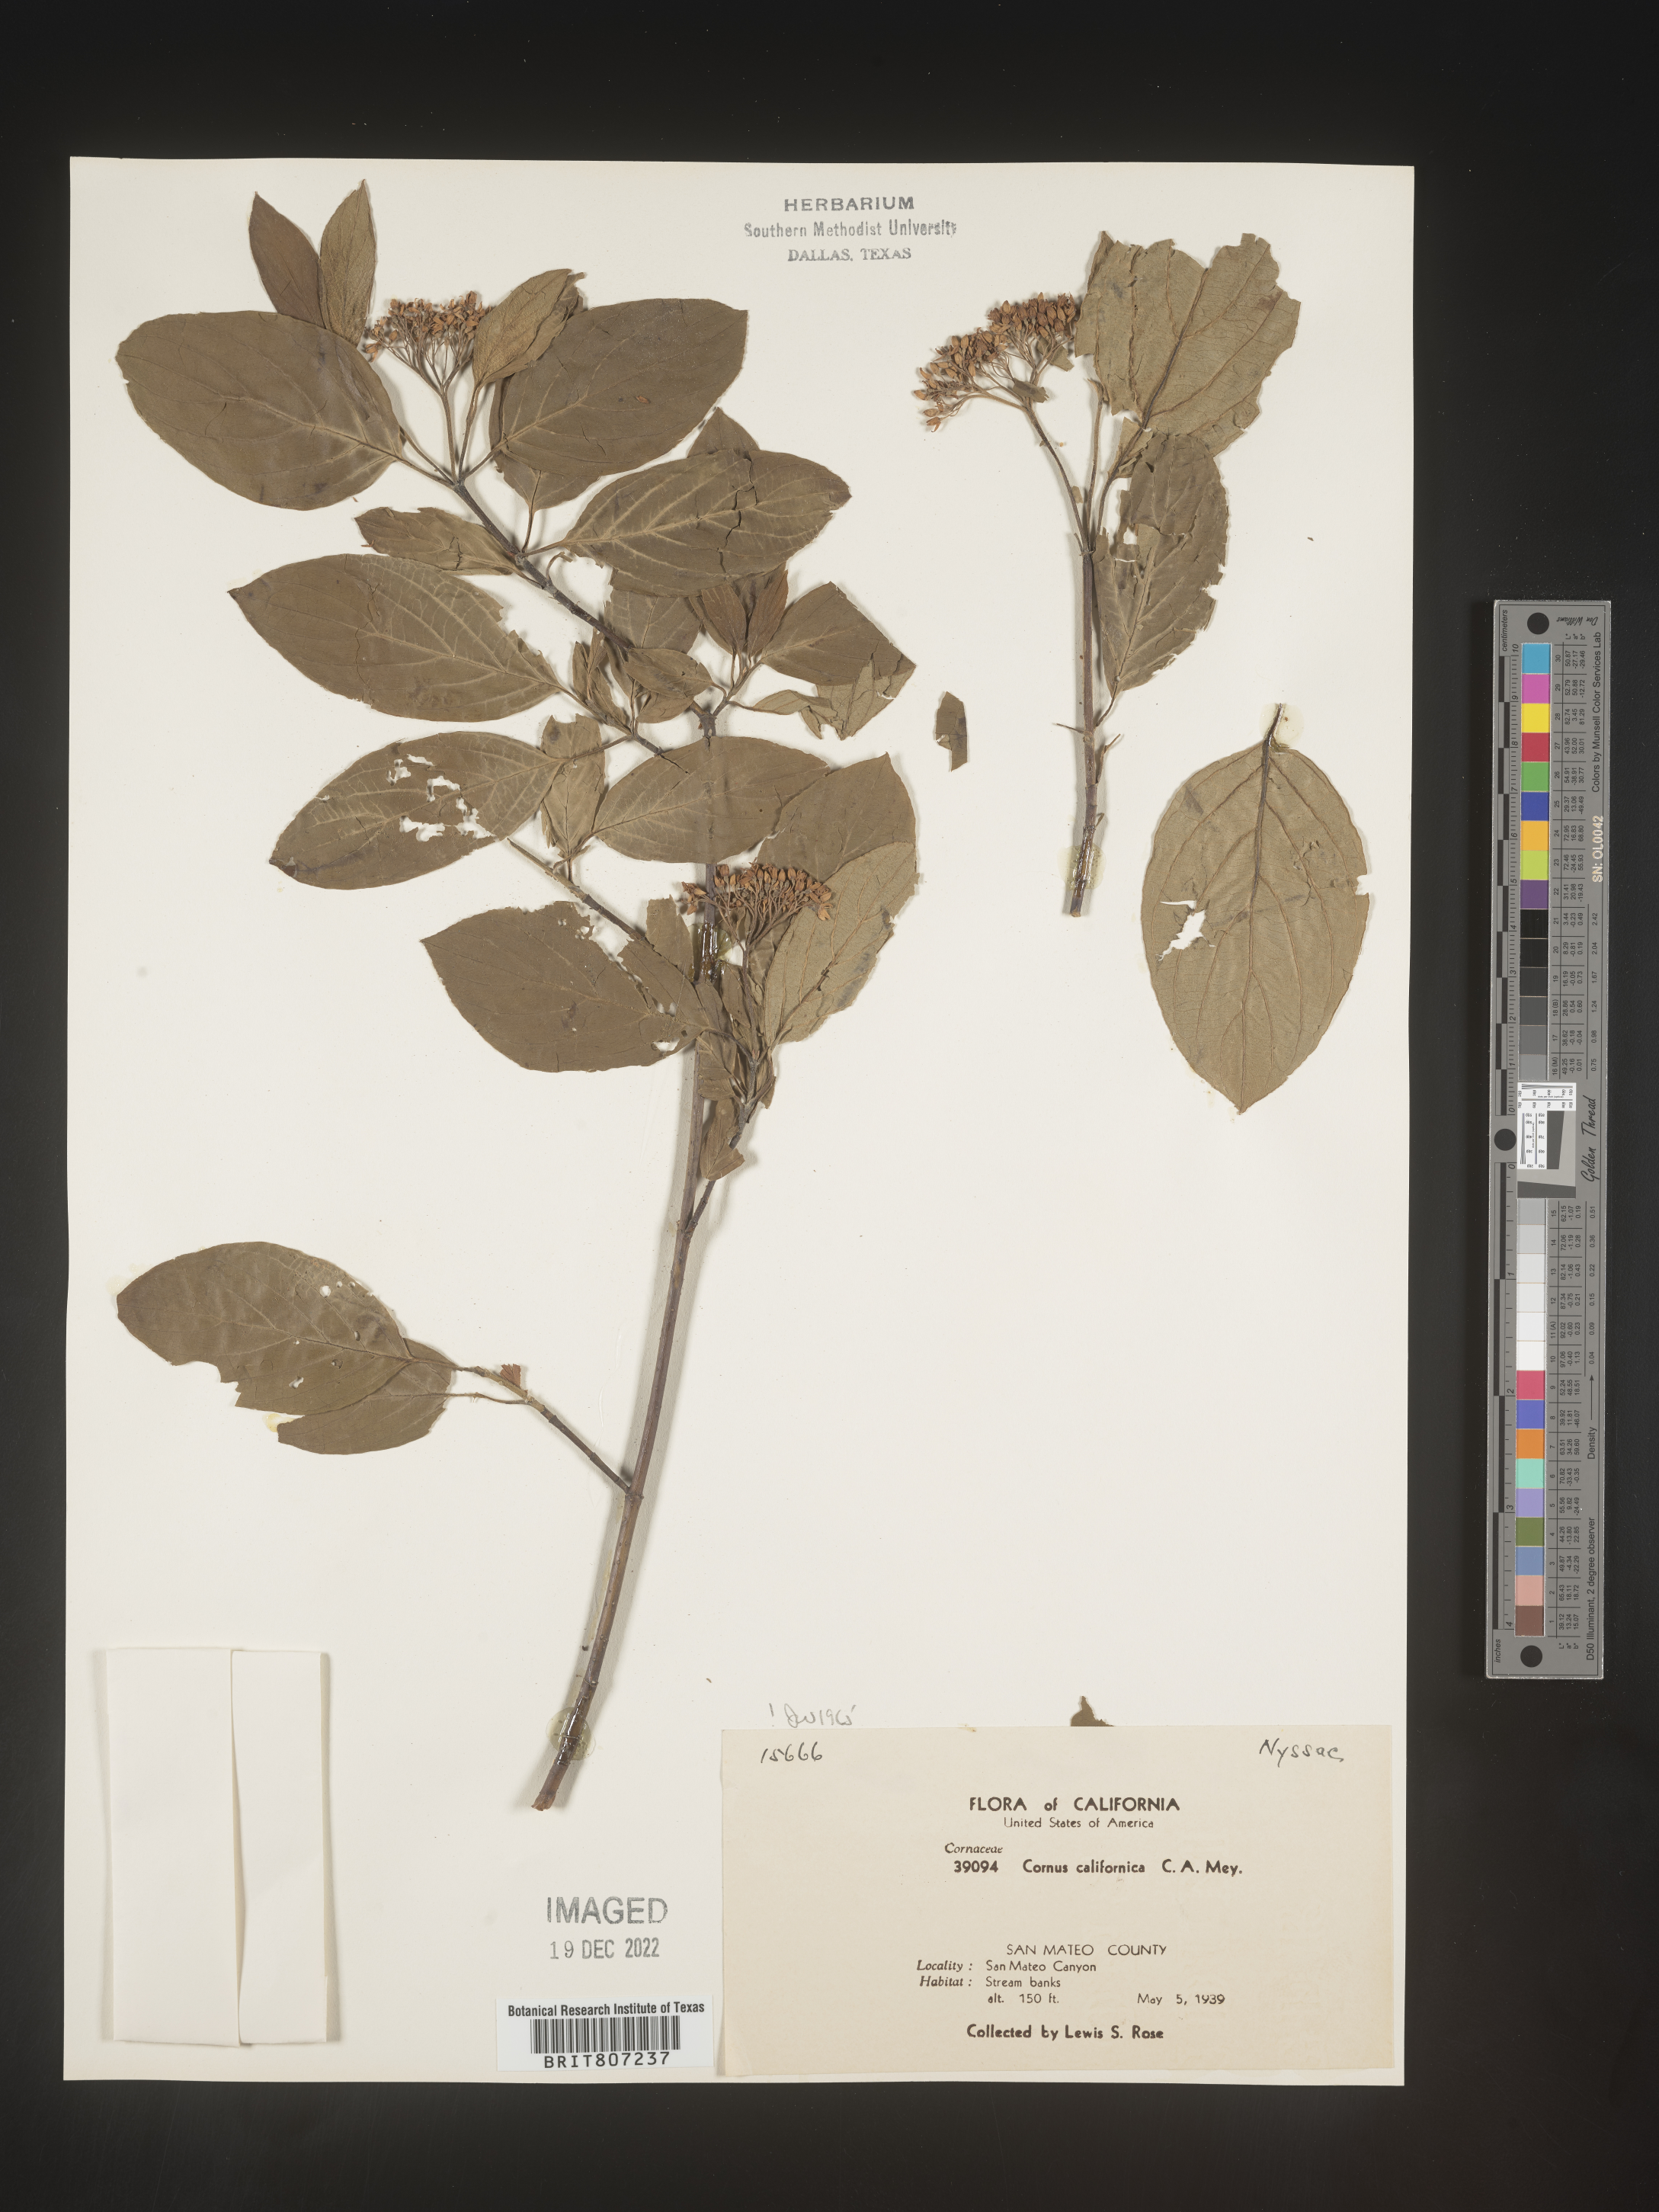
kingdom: Plantae
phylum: Tracheophyta
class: Magnoliopsida
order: Cornales
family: Cornaceae
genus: Cornus
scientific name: Cornus
